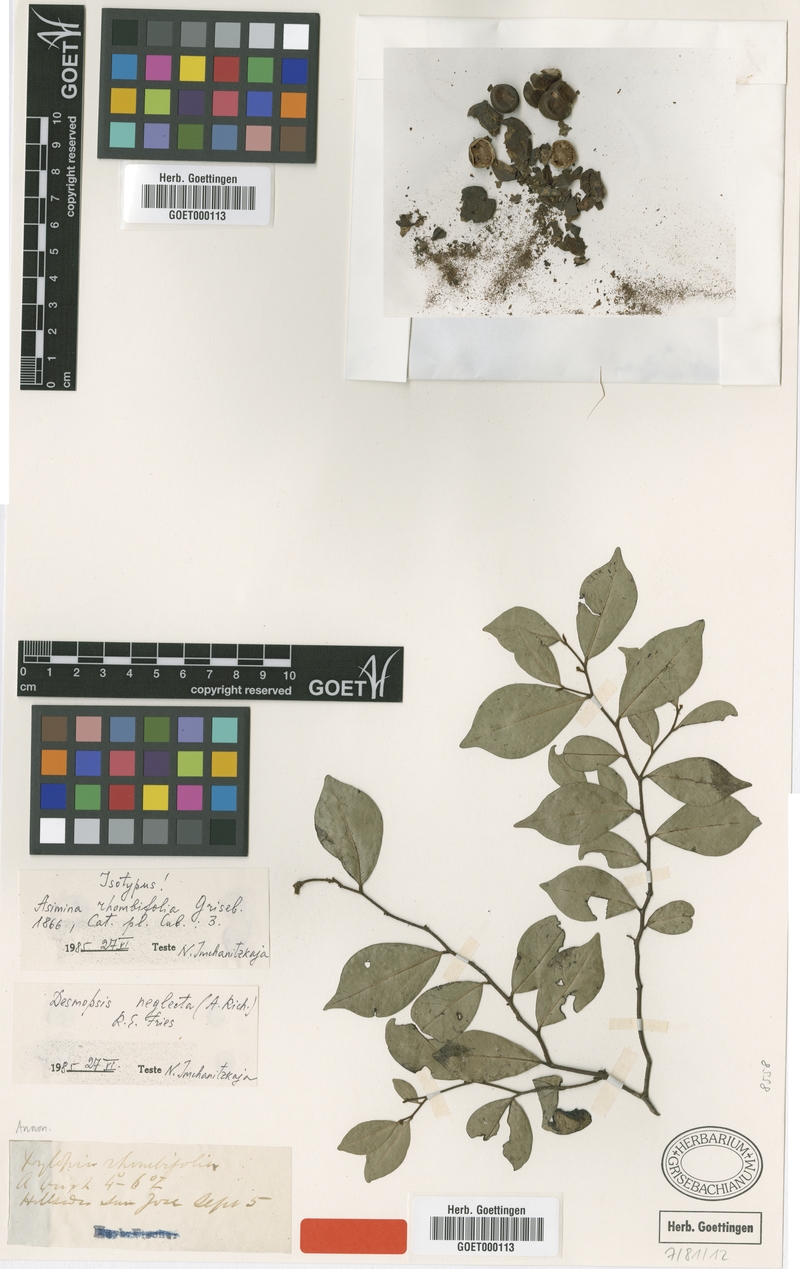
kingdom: Plantae
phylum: Tracheophyta
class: Magnoliopsida
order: Magnoliales
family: Annonaceae
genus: Desmopsis
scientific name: Desmopsis neglecta
